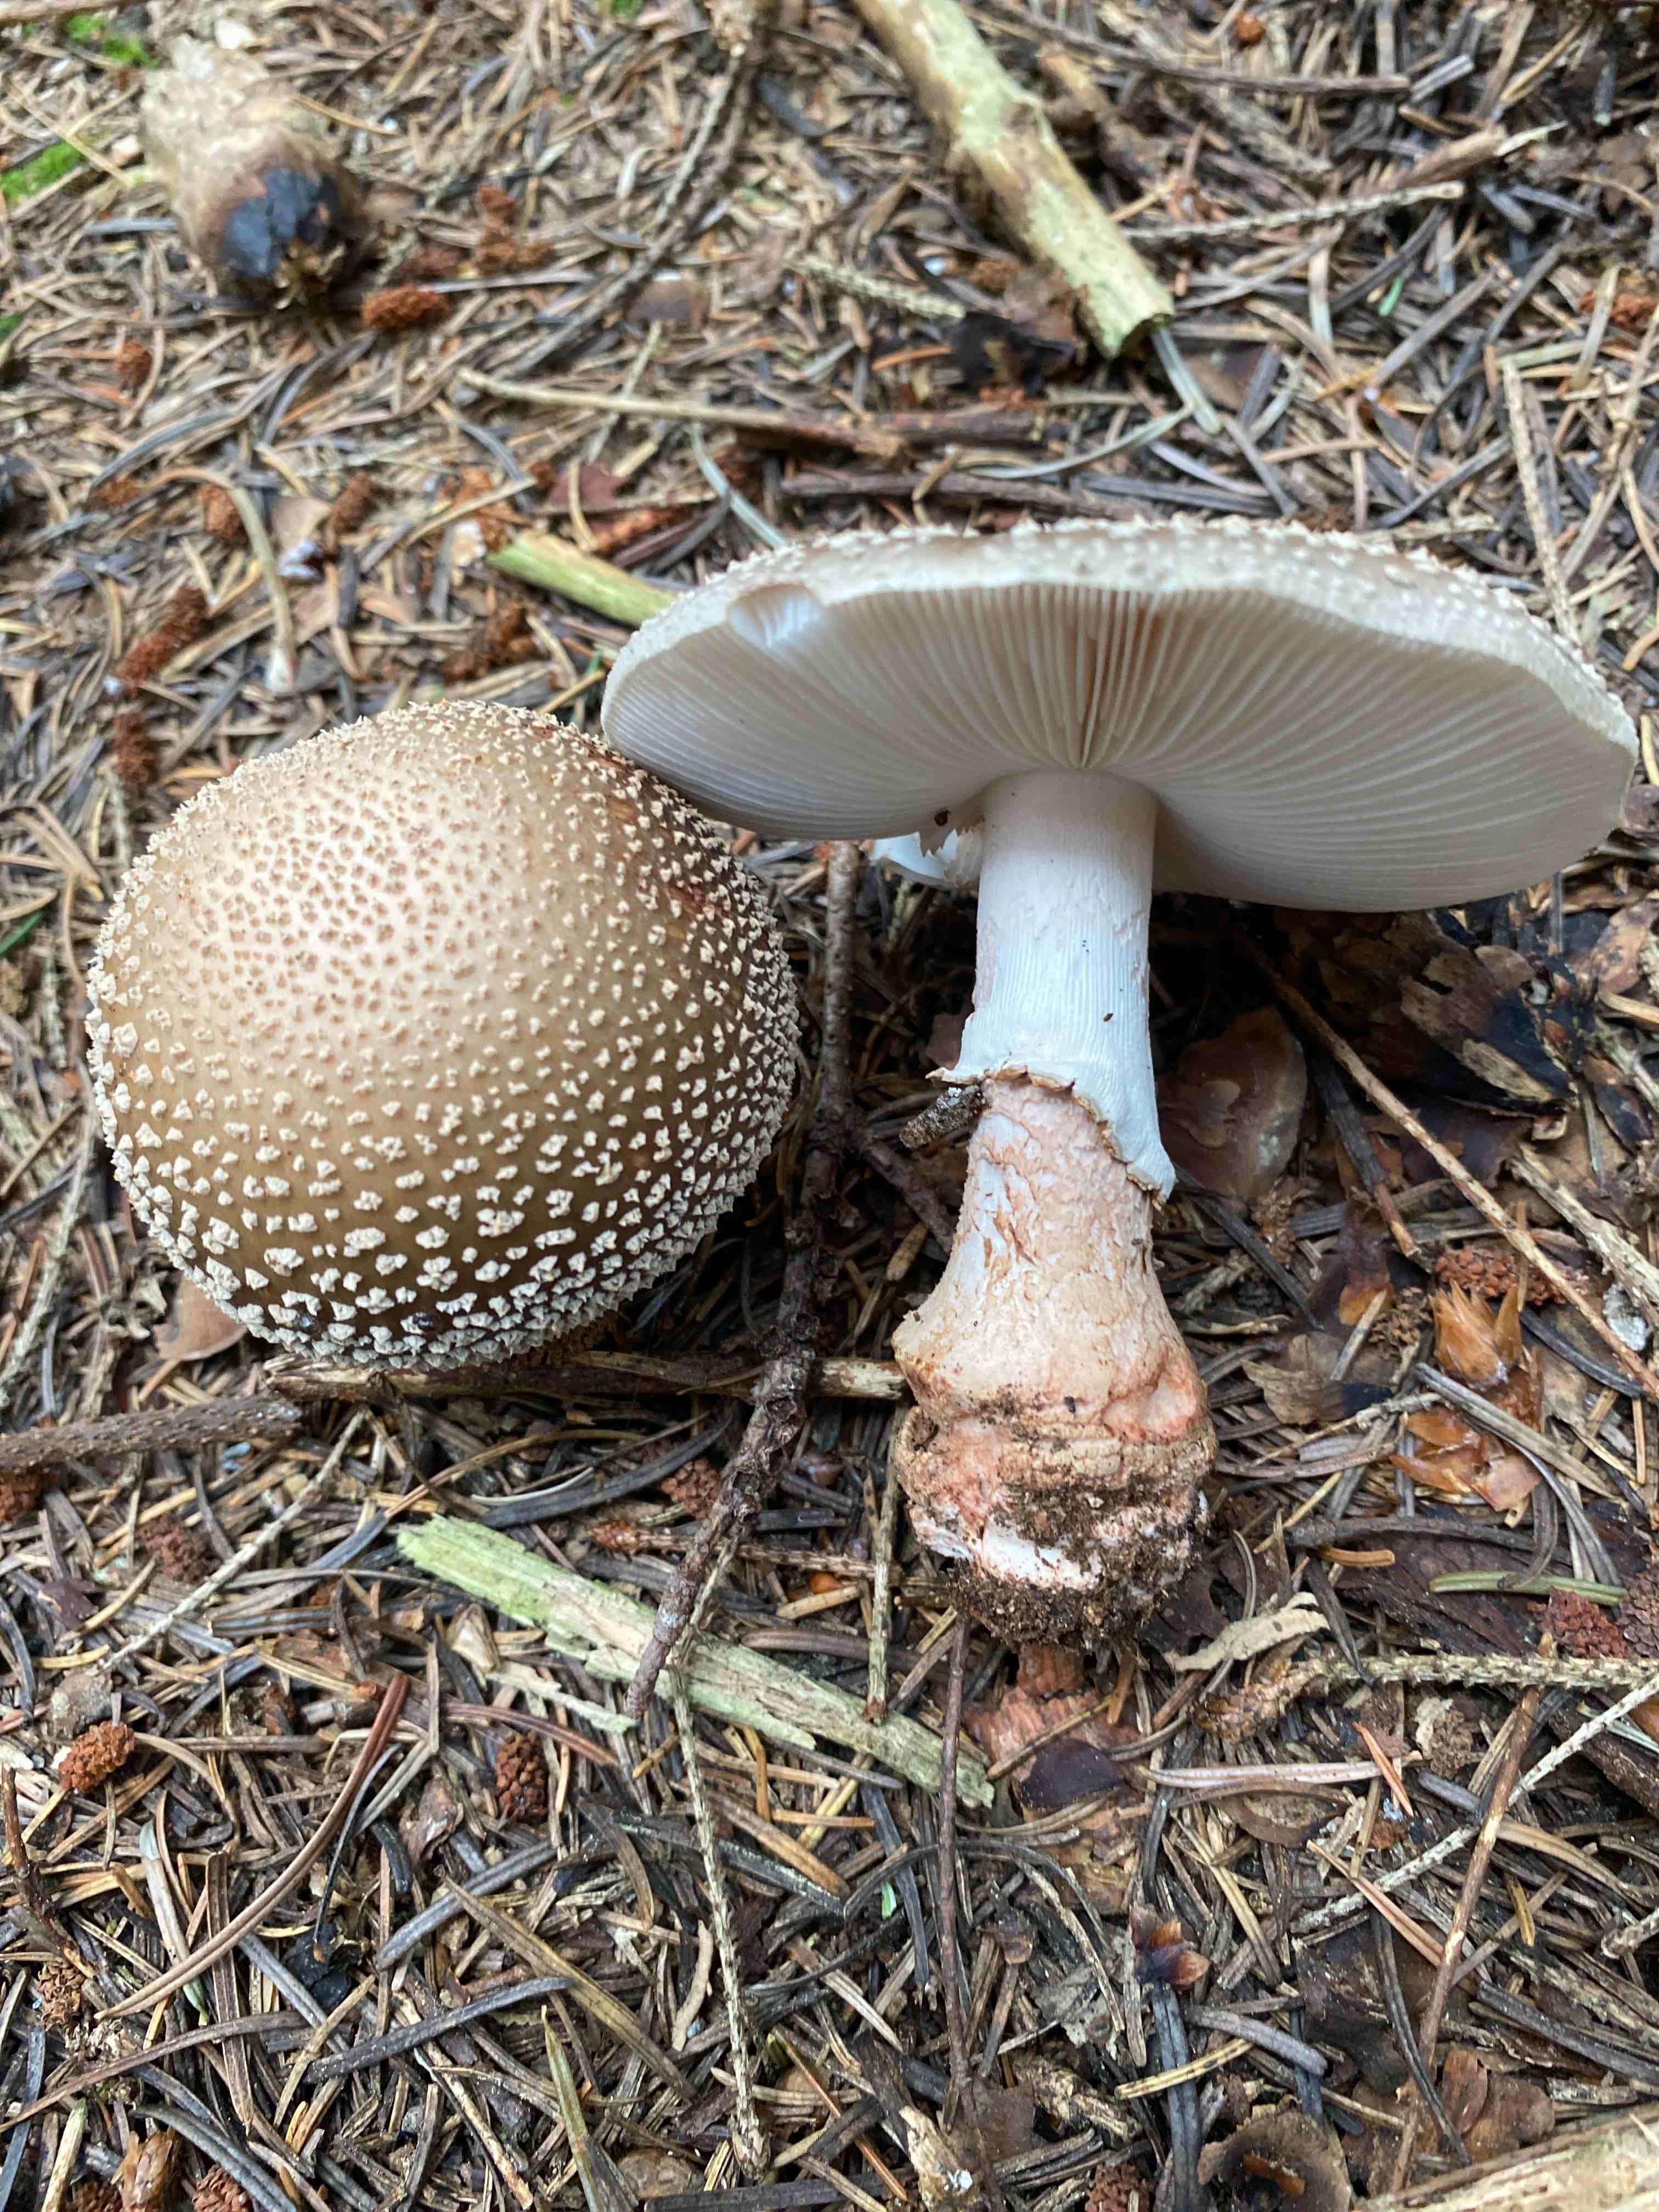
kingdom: Fungi
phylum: Basidiomycota
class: Agaricomycetes
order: Agaricales
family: Amanitaceae
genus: Amanita
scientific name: Amanita rubescens
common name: rødmende fluesvamp
